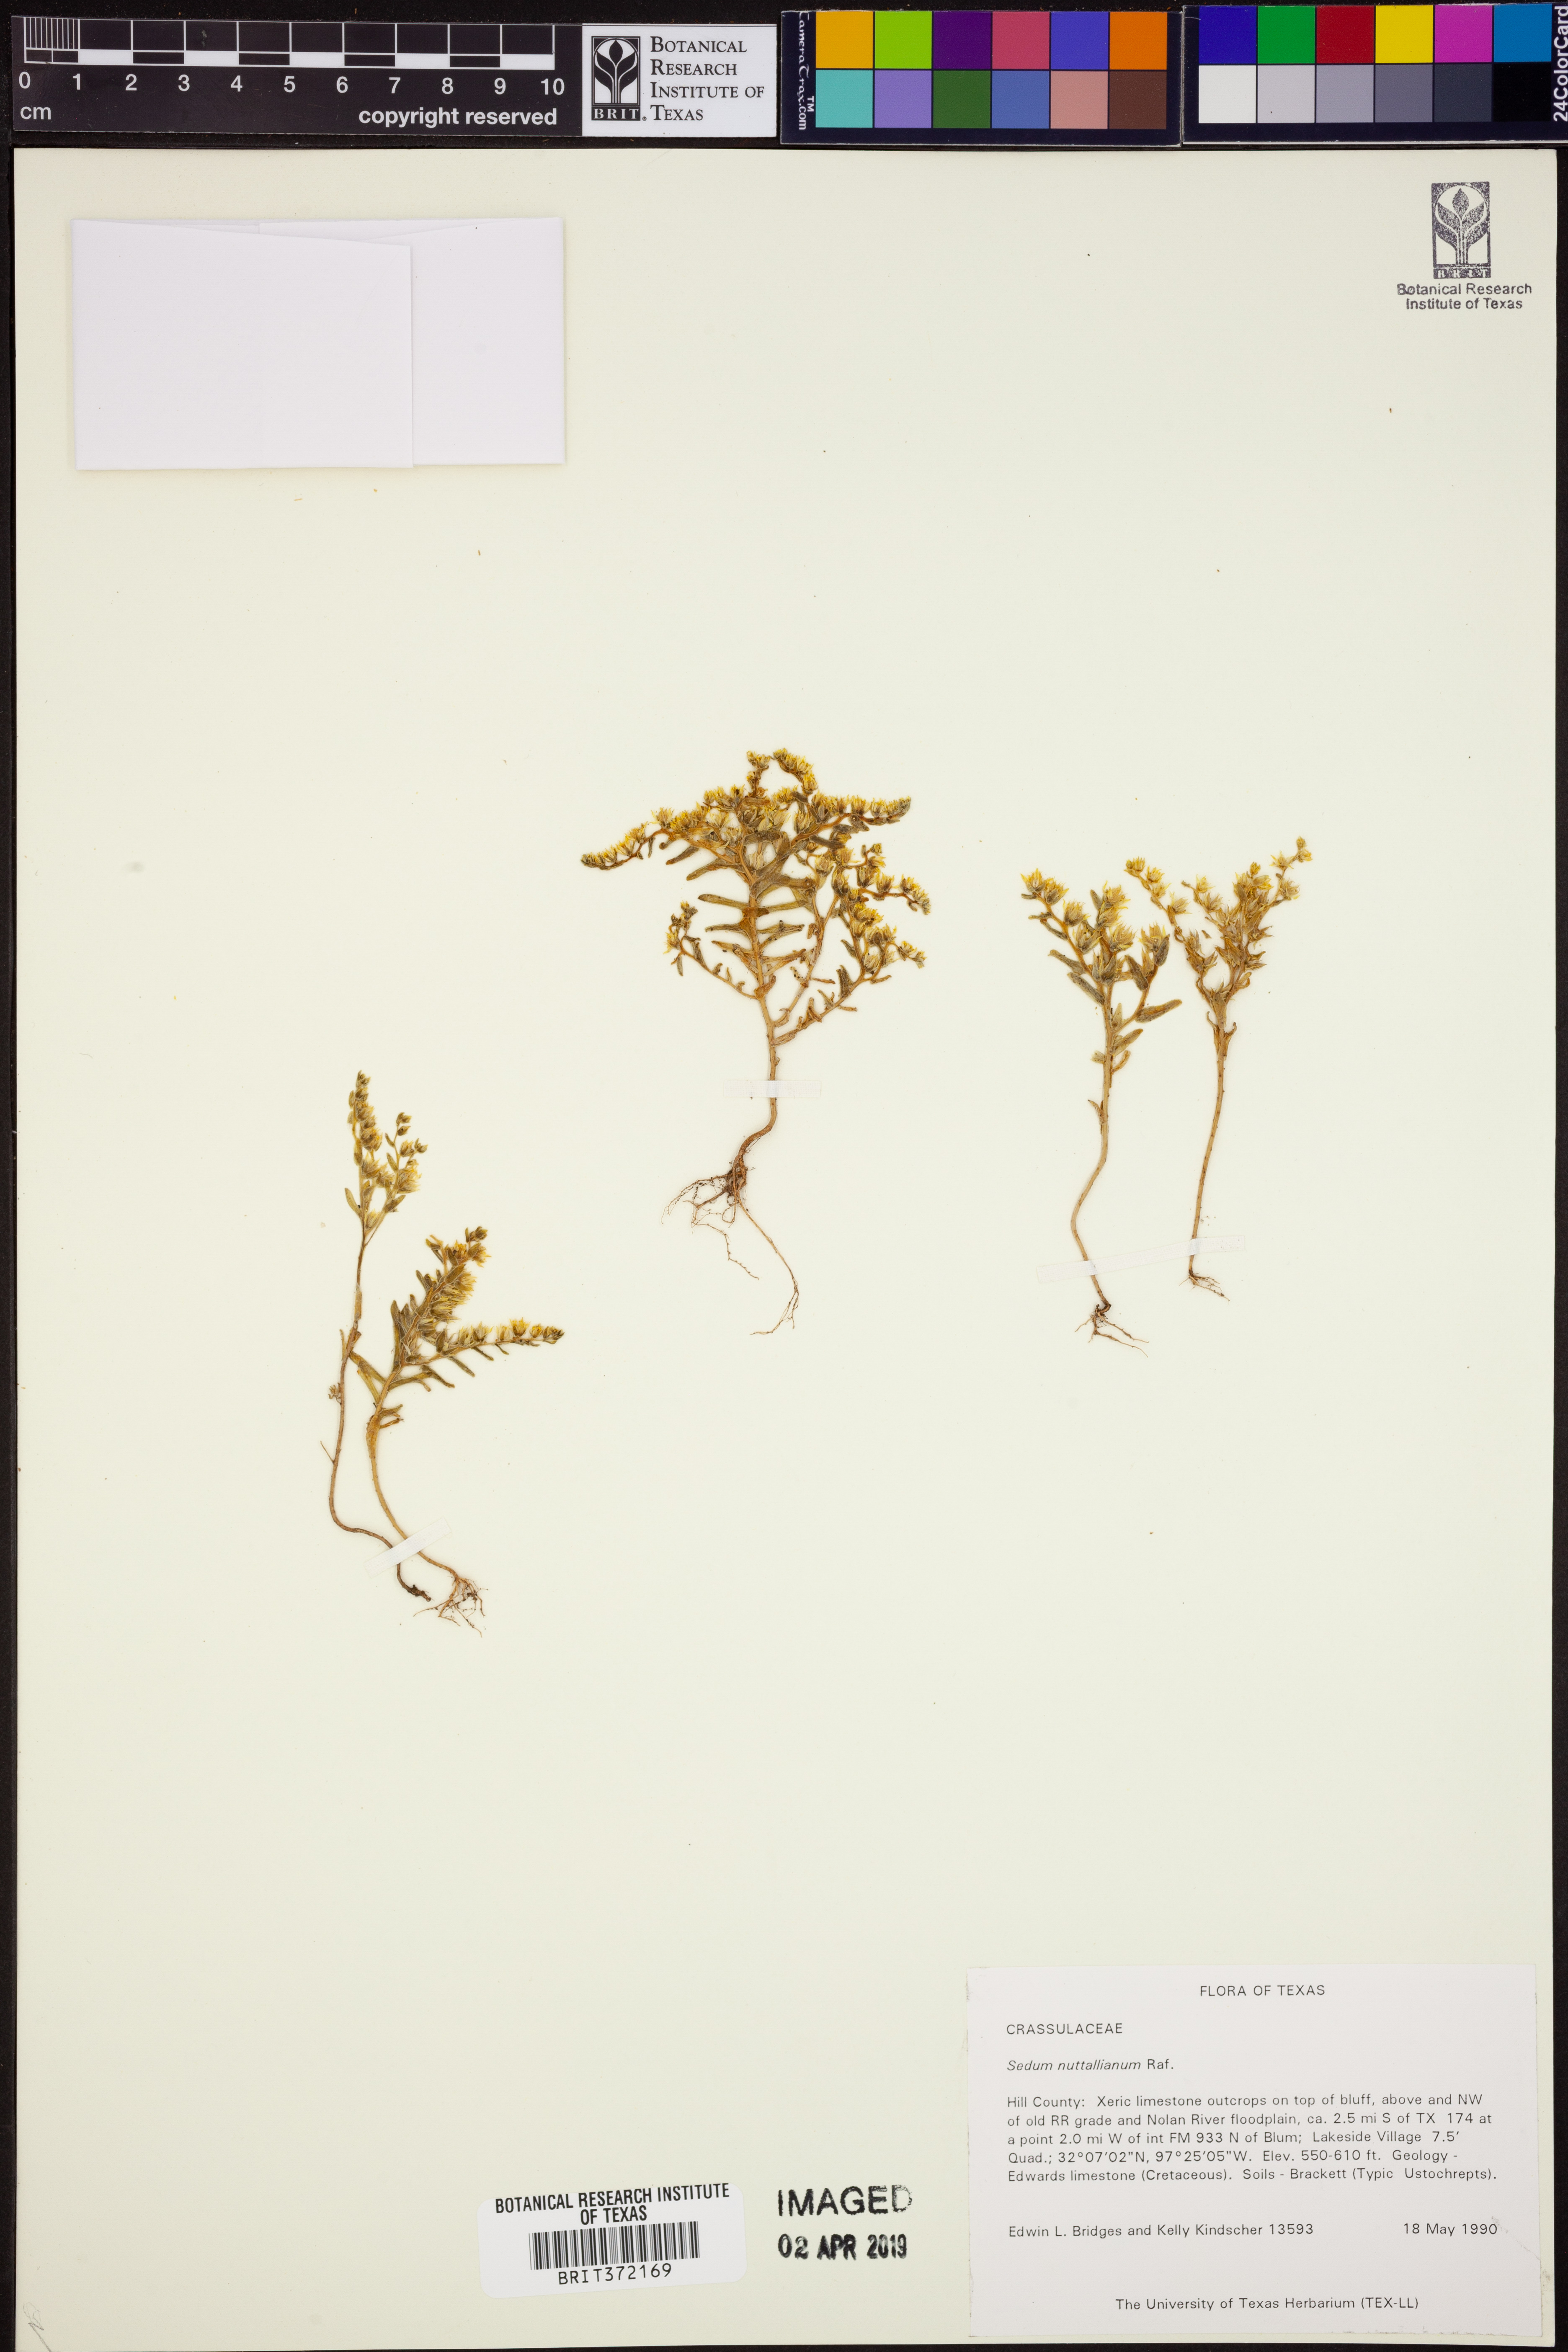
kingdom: Plantae
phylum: Tracheophyta
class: Magnoliopsida
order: Saxifragales
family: Crassulaceae
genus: Sedum
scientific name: Sedum nuttallii
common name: Yellow stonecrop
